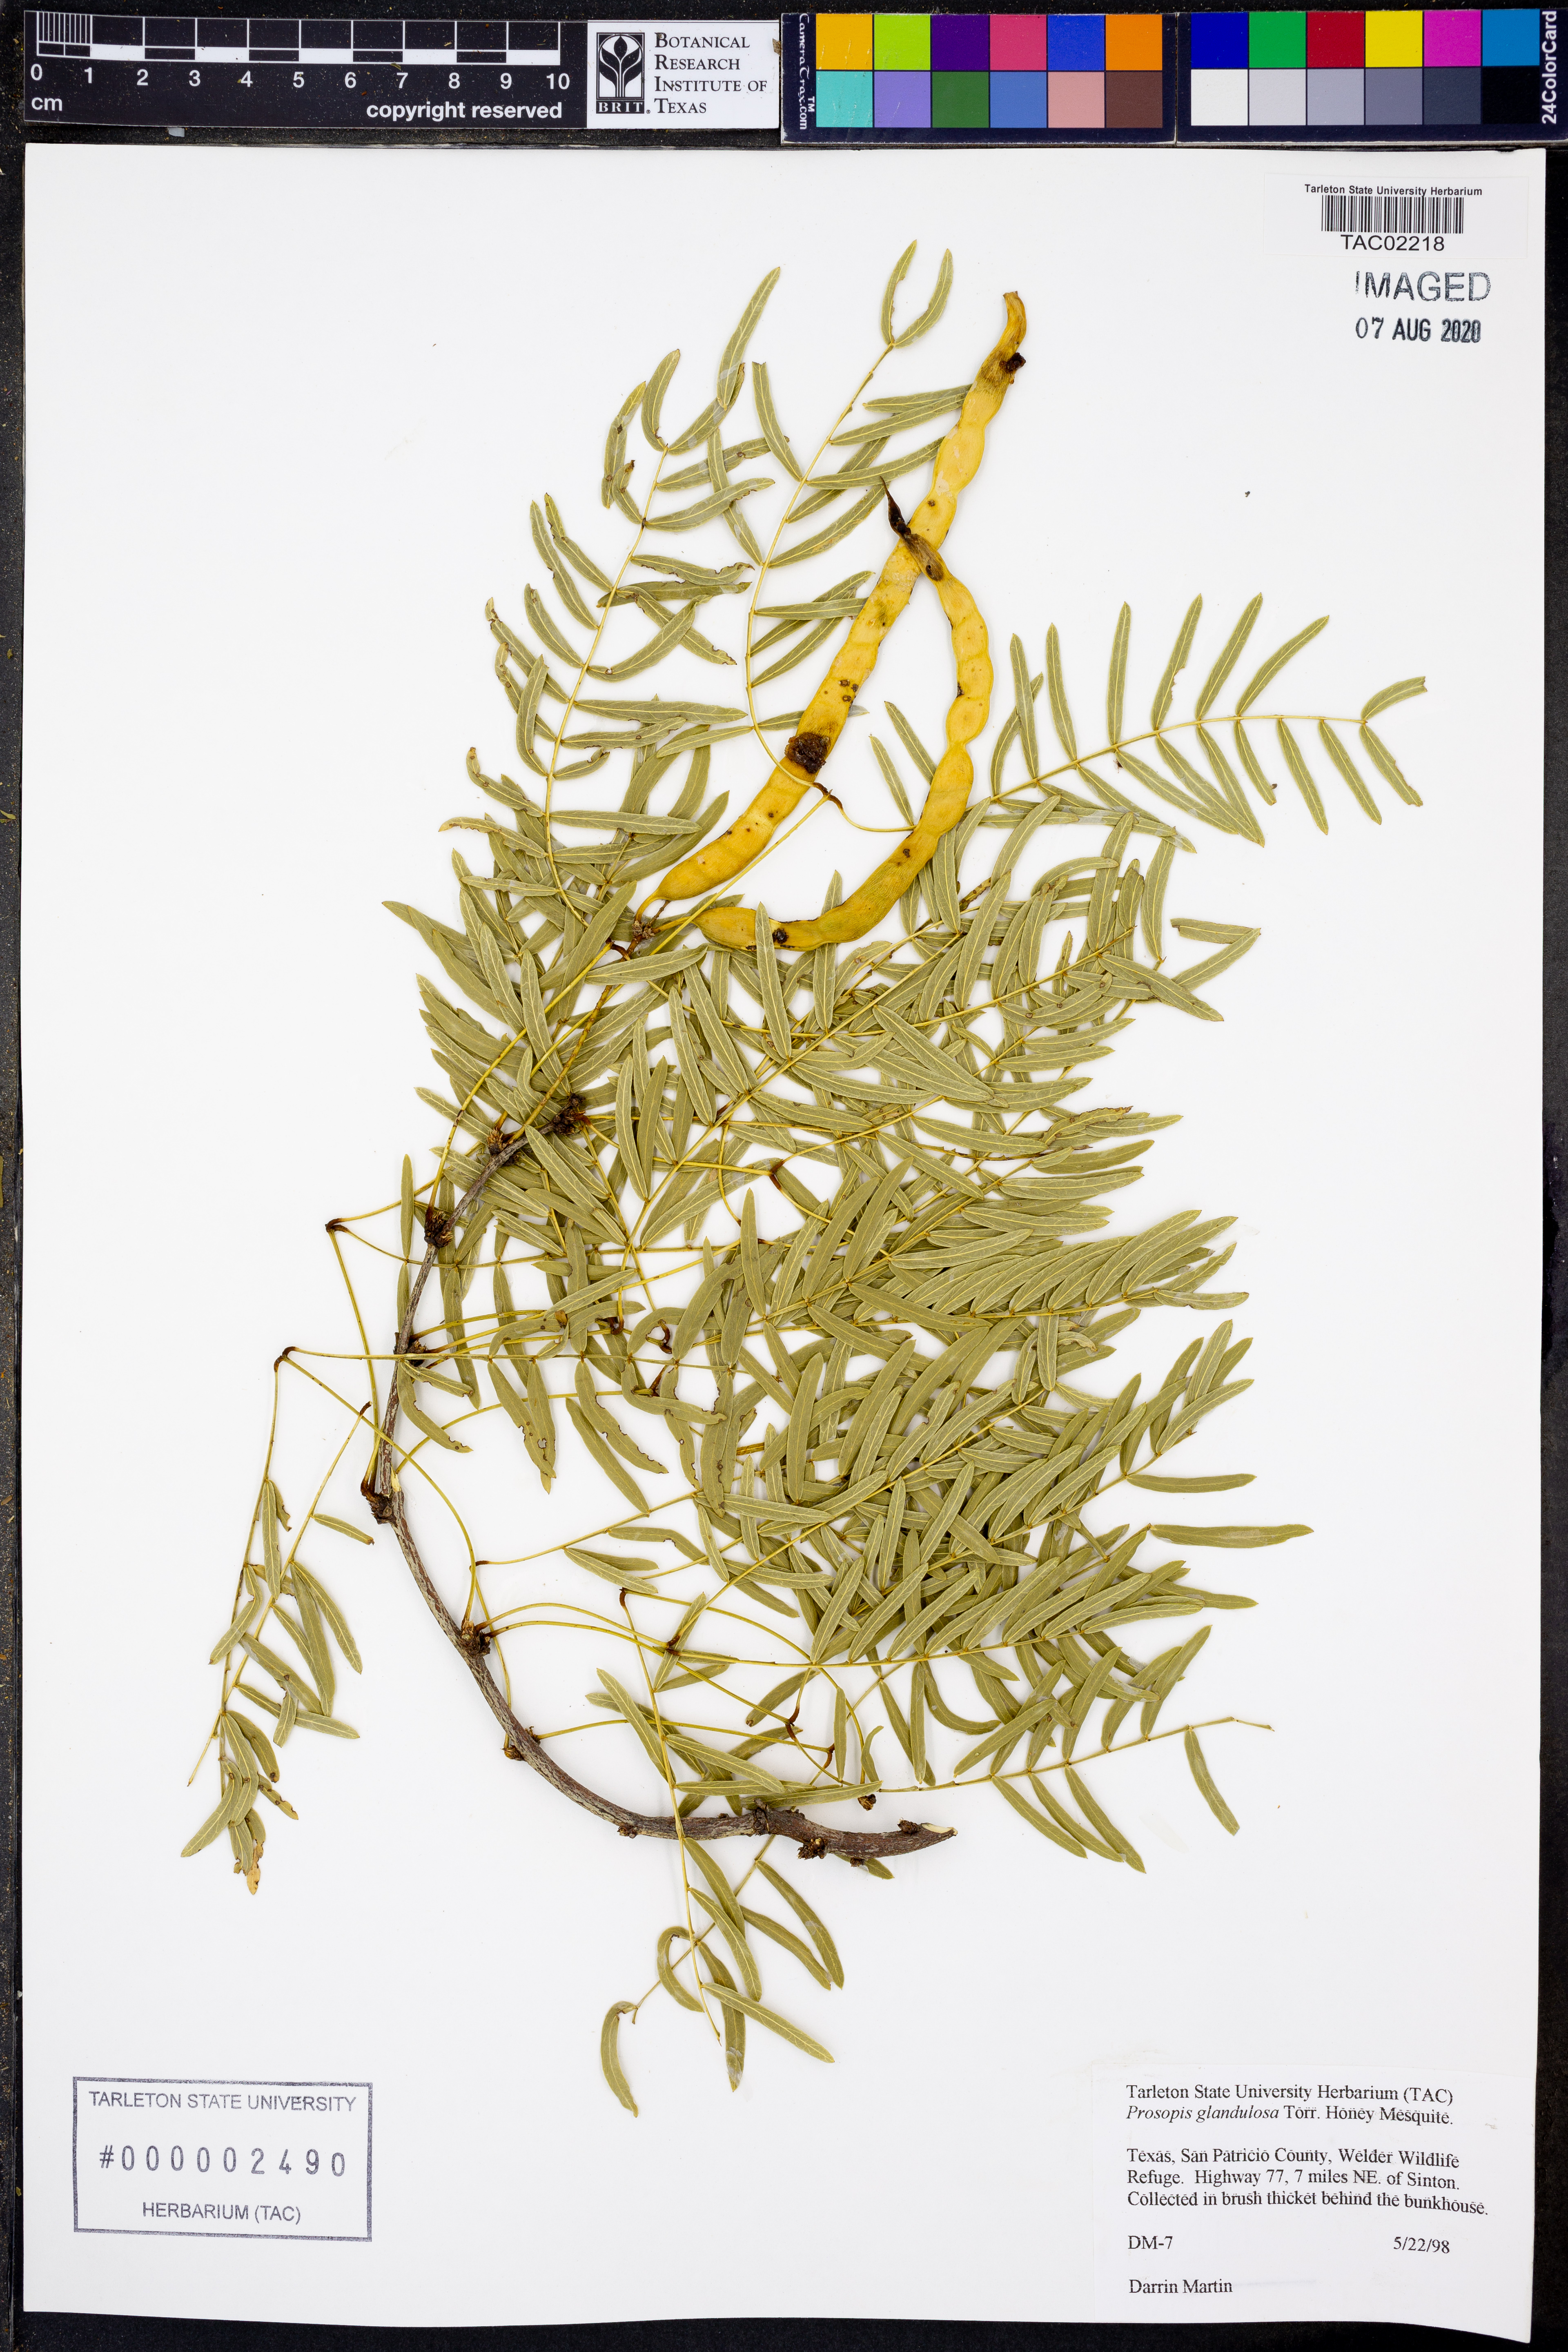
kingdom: Plantae
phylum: Tracheophyta
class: Magnoliopsida
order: Fabales
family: Fabaceae
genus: Prosopis
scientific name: Prosopis glandulosa
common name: Honey mesquite
